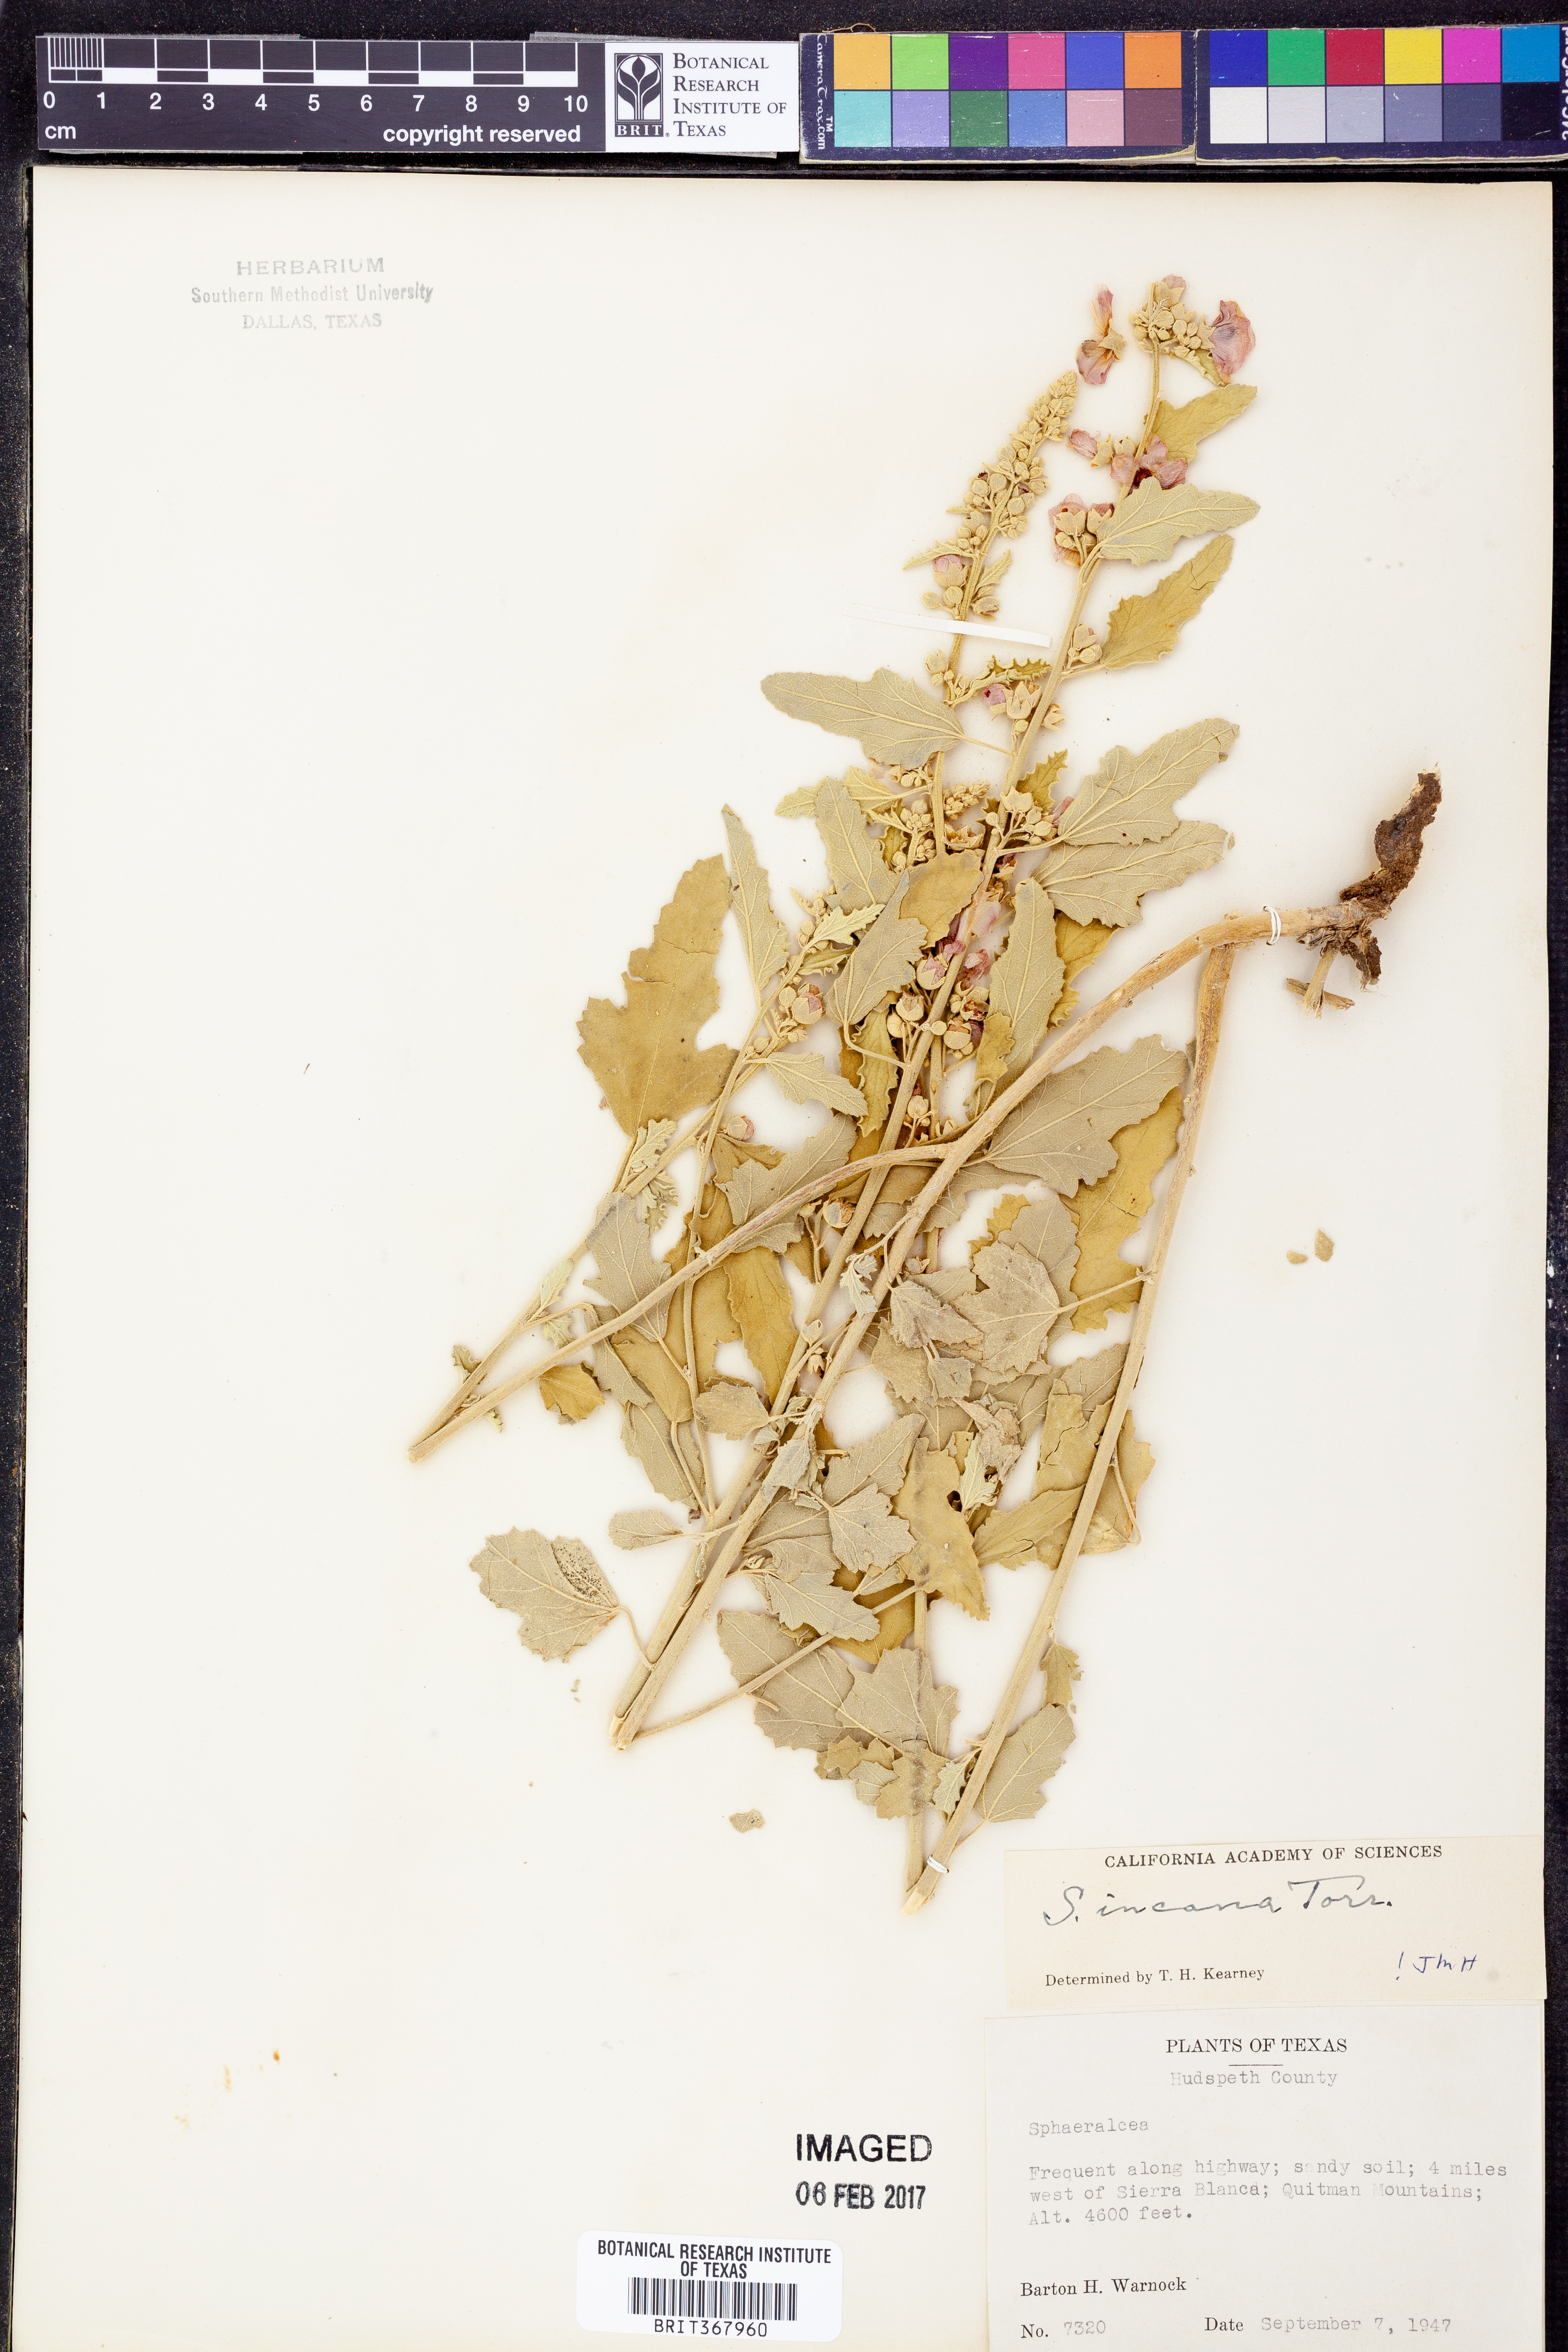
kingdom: Plantae
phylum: Tracheophyta
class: Magnoliopsida
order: Malvales
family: Malvaceae
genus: Sphaeralcea
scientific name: Sphaeralcea incana
